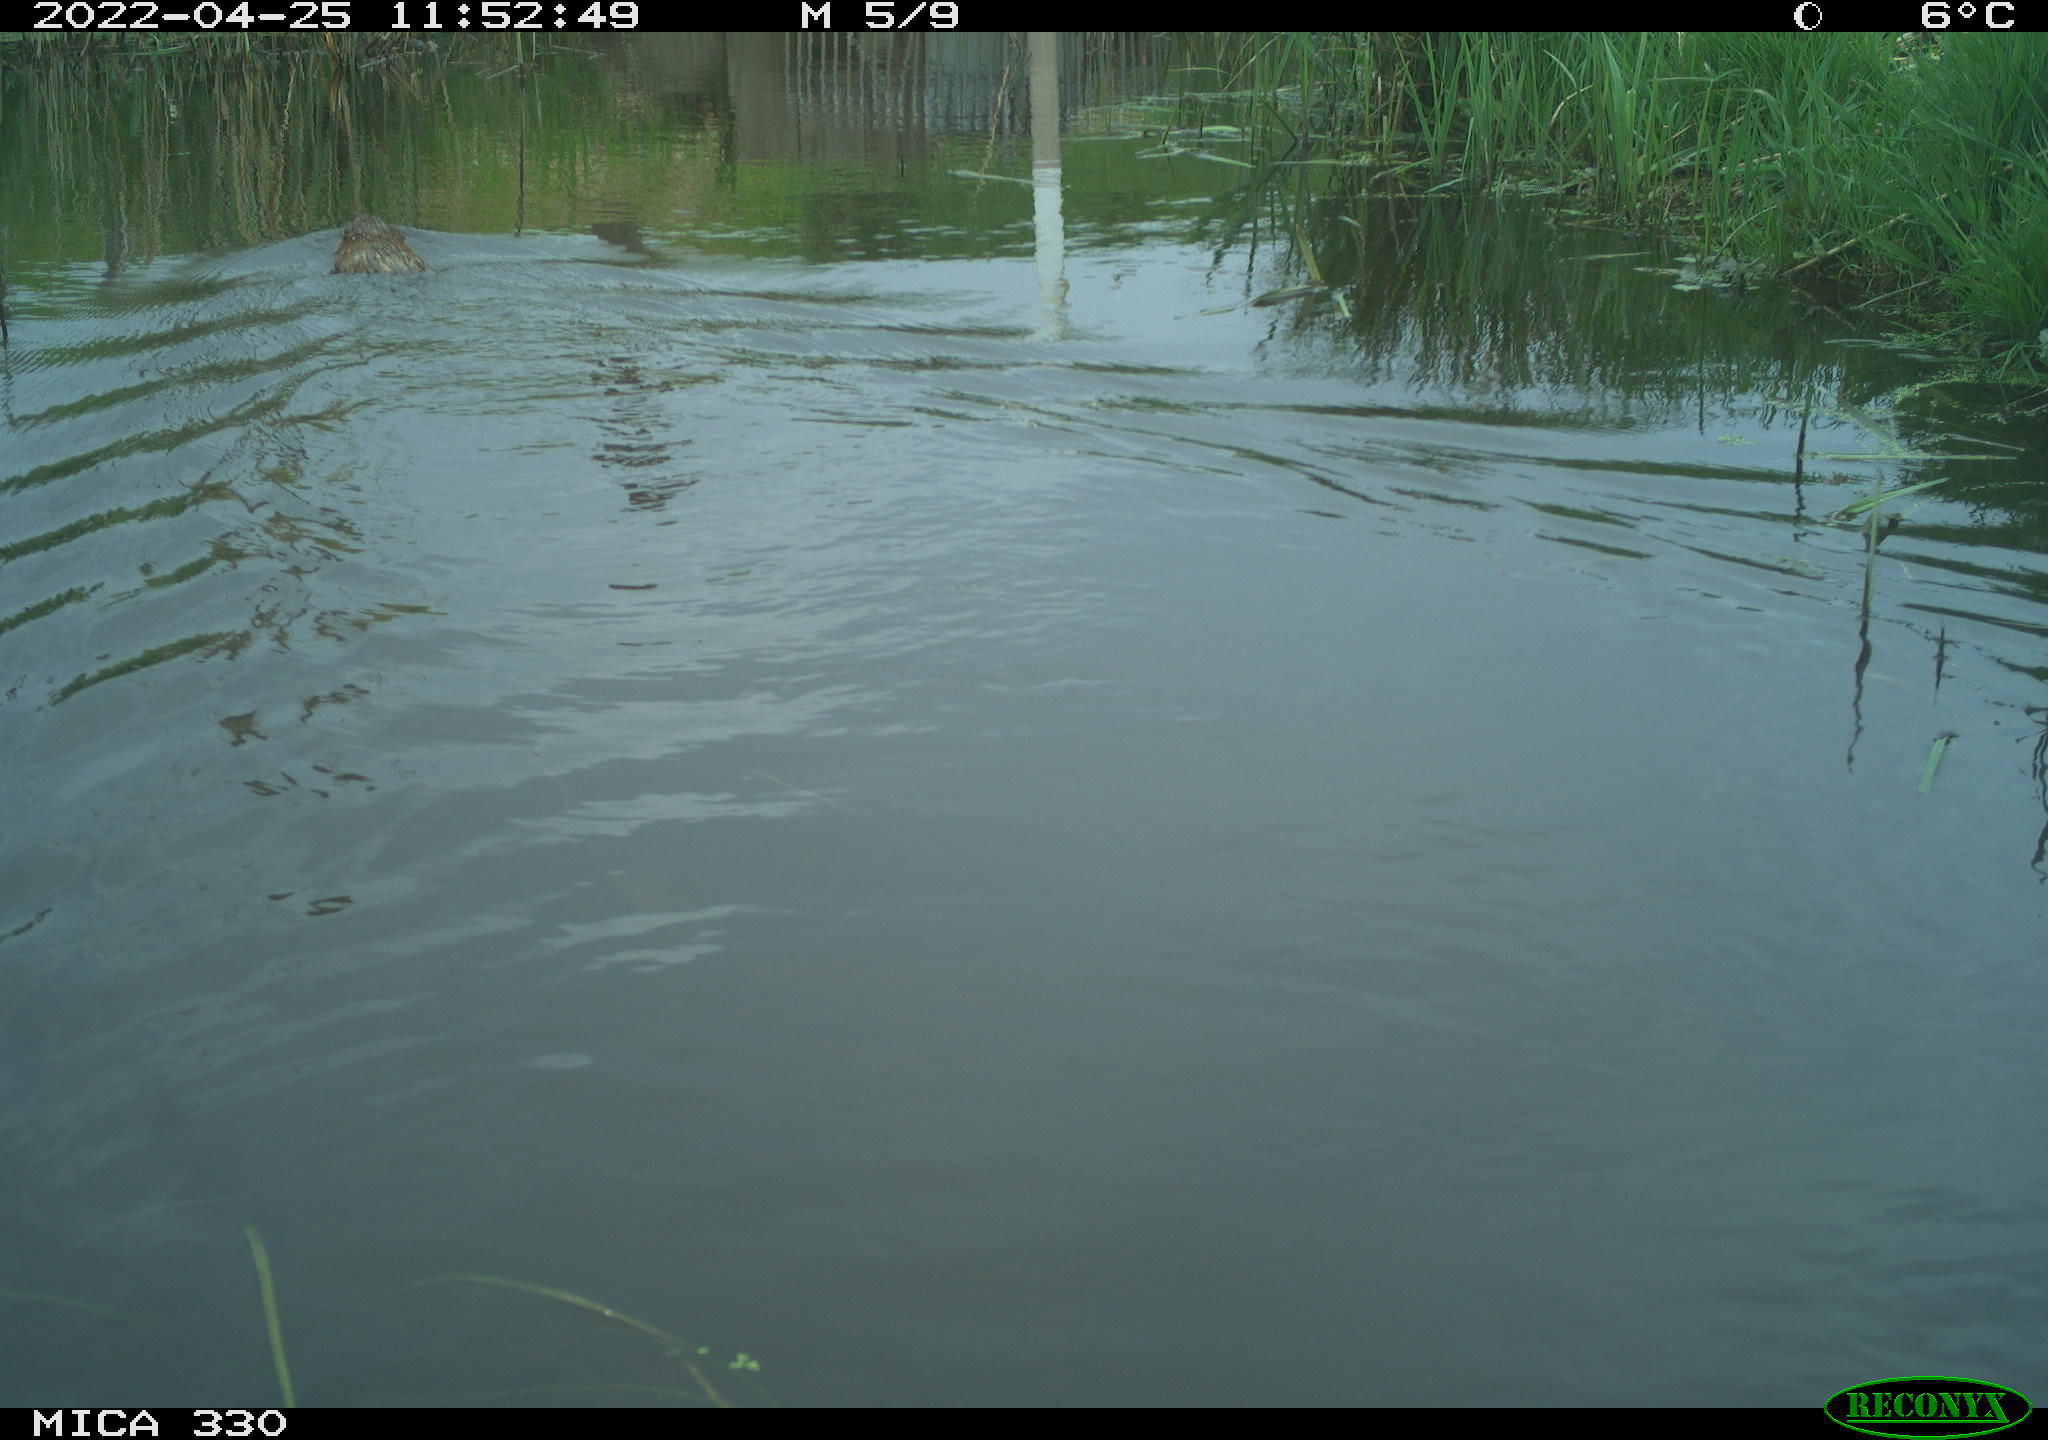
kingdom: Animalia
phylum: Chordata
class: Mammalia
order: Rodentia
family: Cricetidae
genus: Ondatra
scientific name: Ondatra zibethicus
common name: Muskrat
